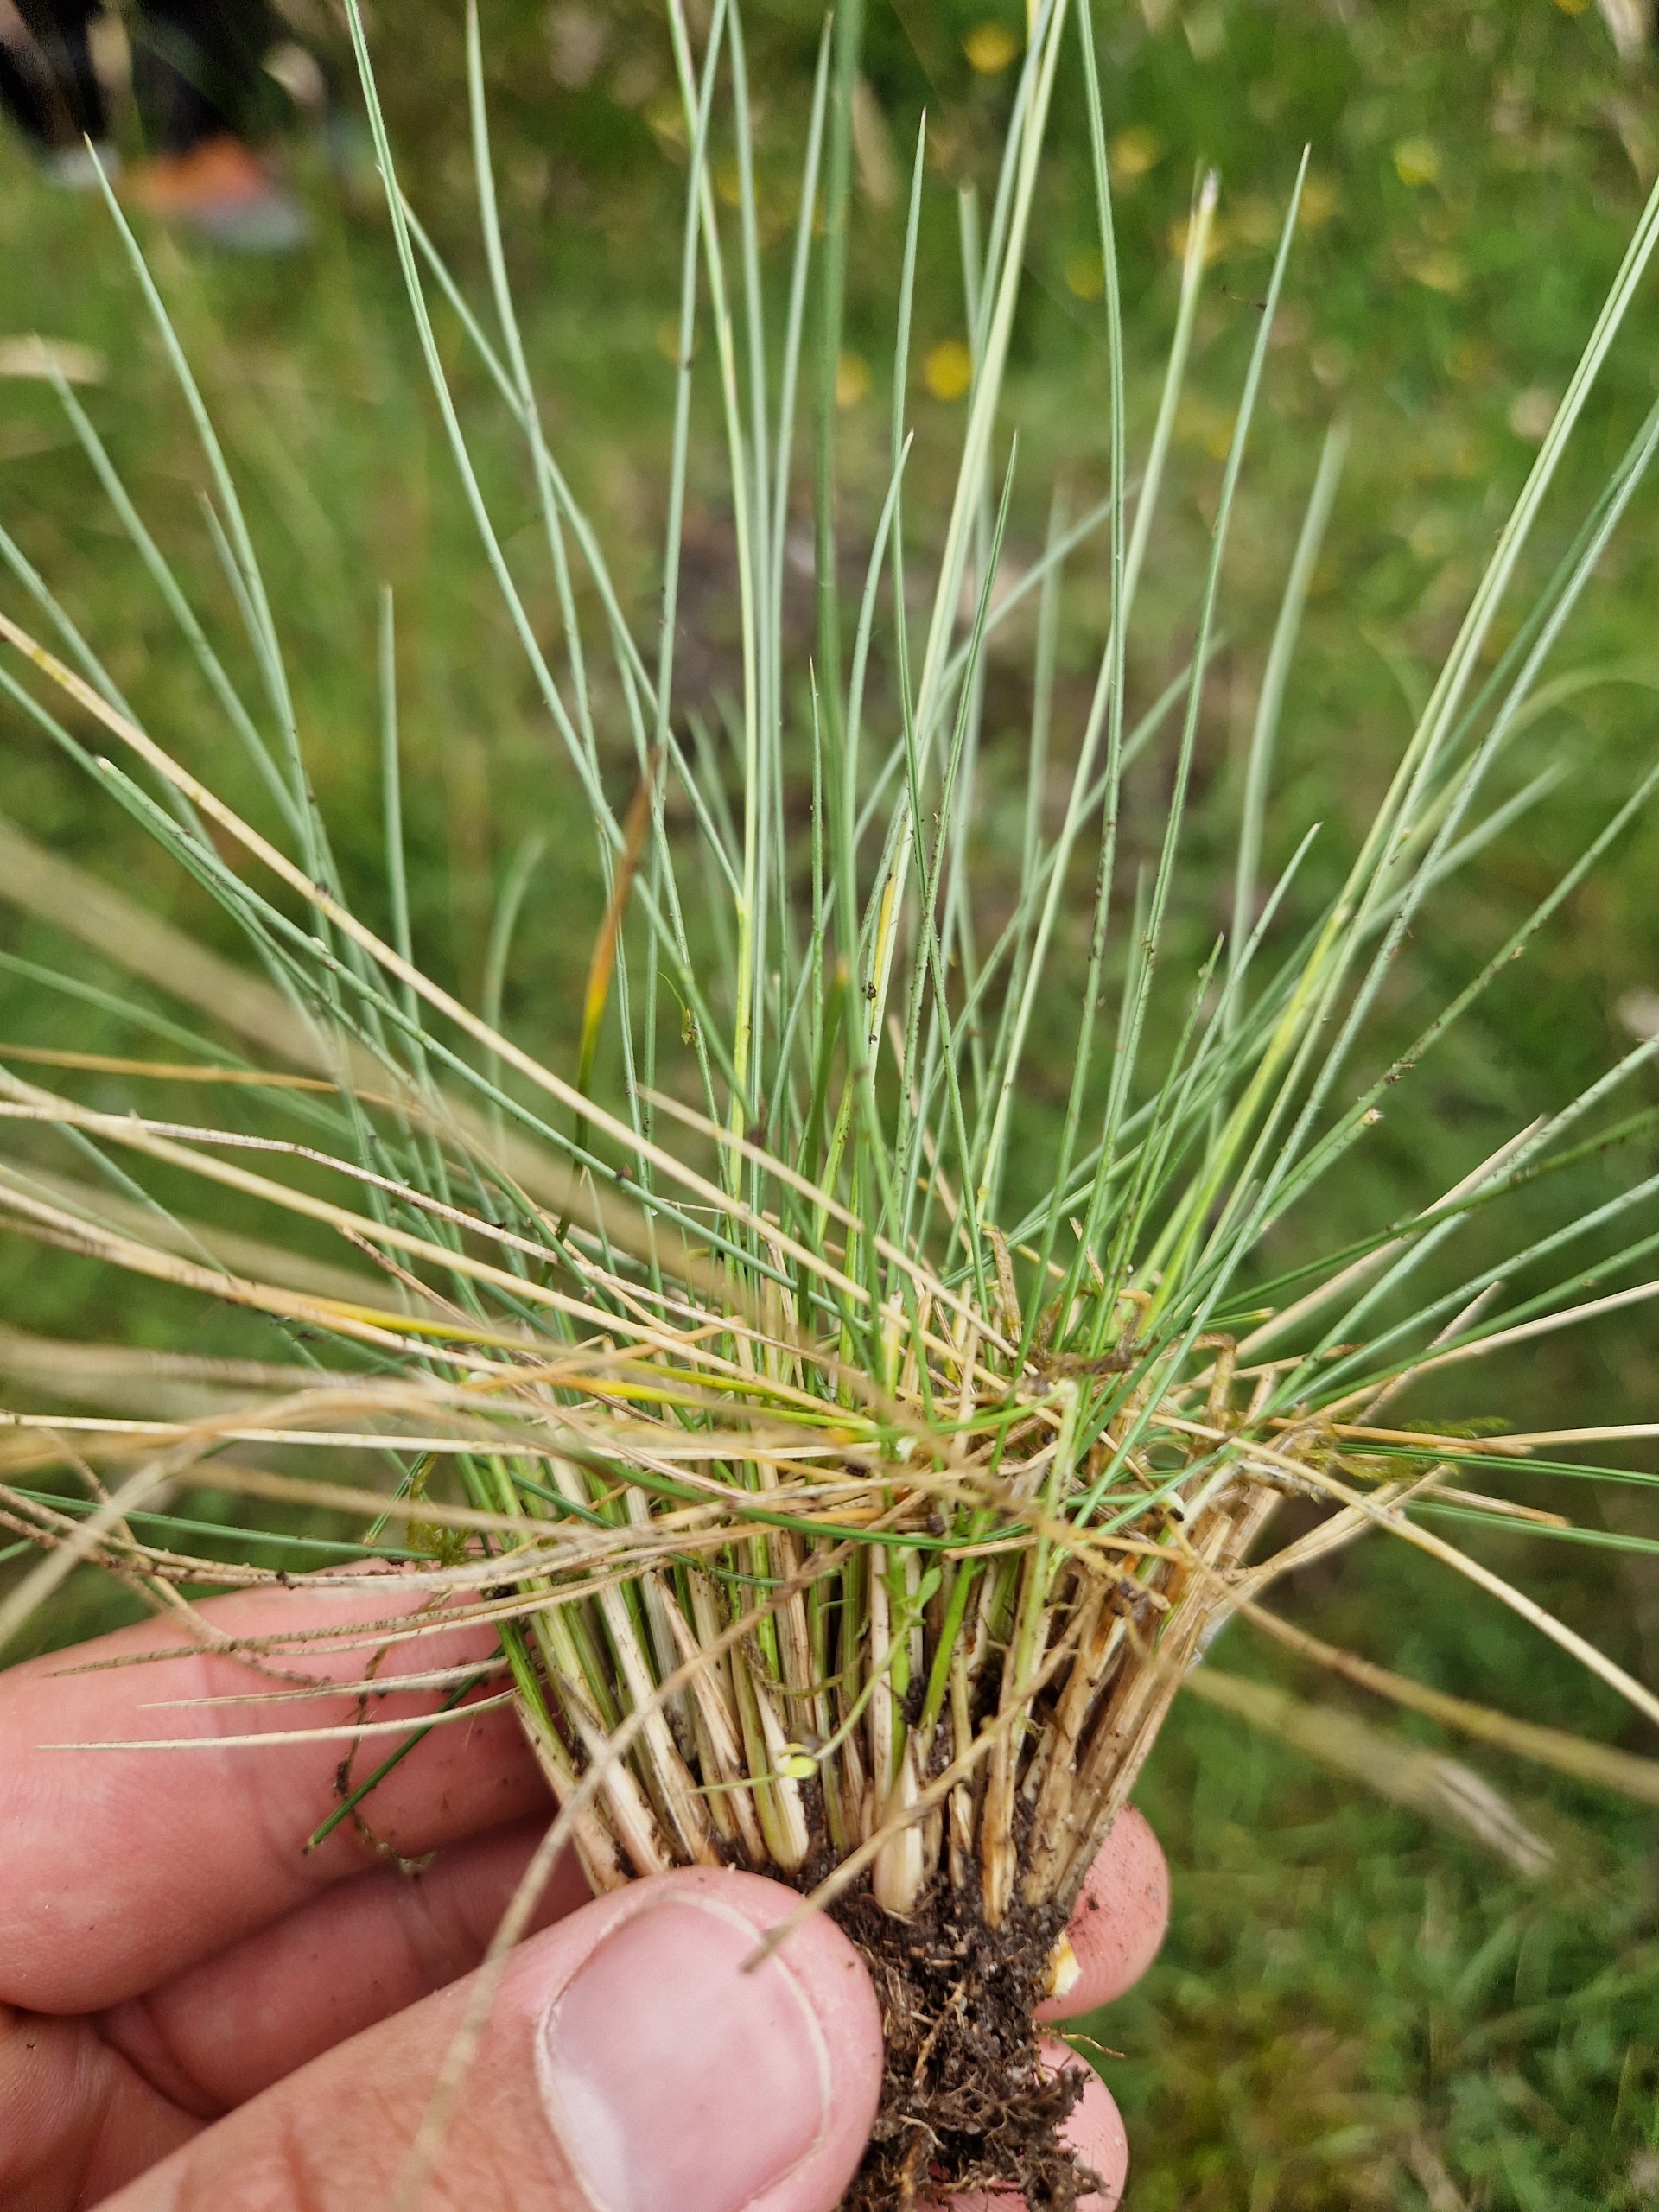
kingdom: Plantae
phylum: Tracheophyta
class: Liliopsida
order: Poales
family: Poaceae
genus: Nardus
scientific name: Nardus stricta
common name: Katteskæg
